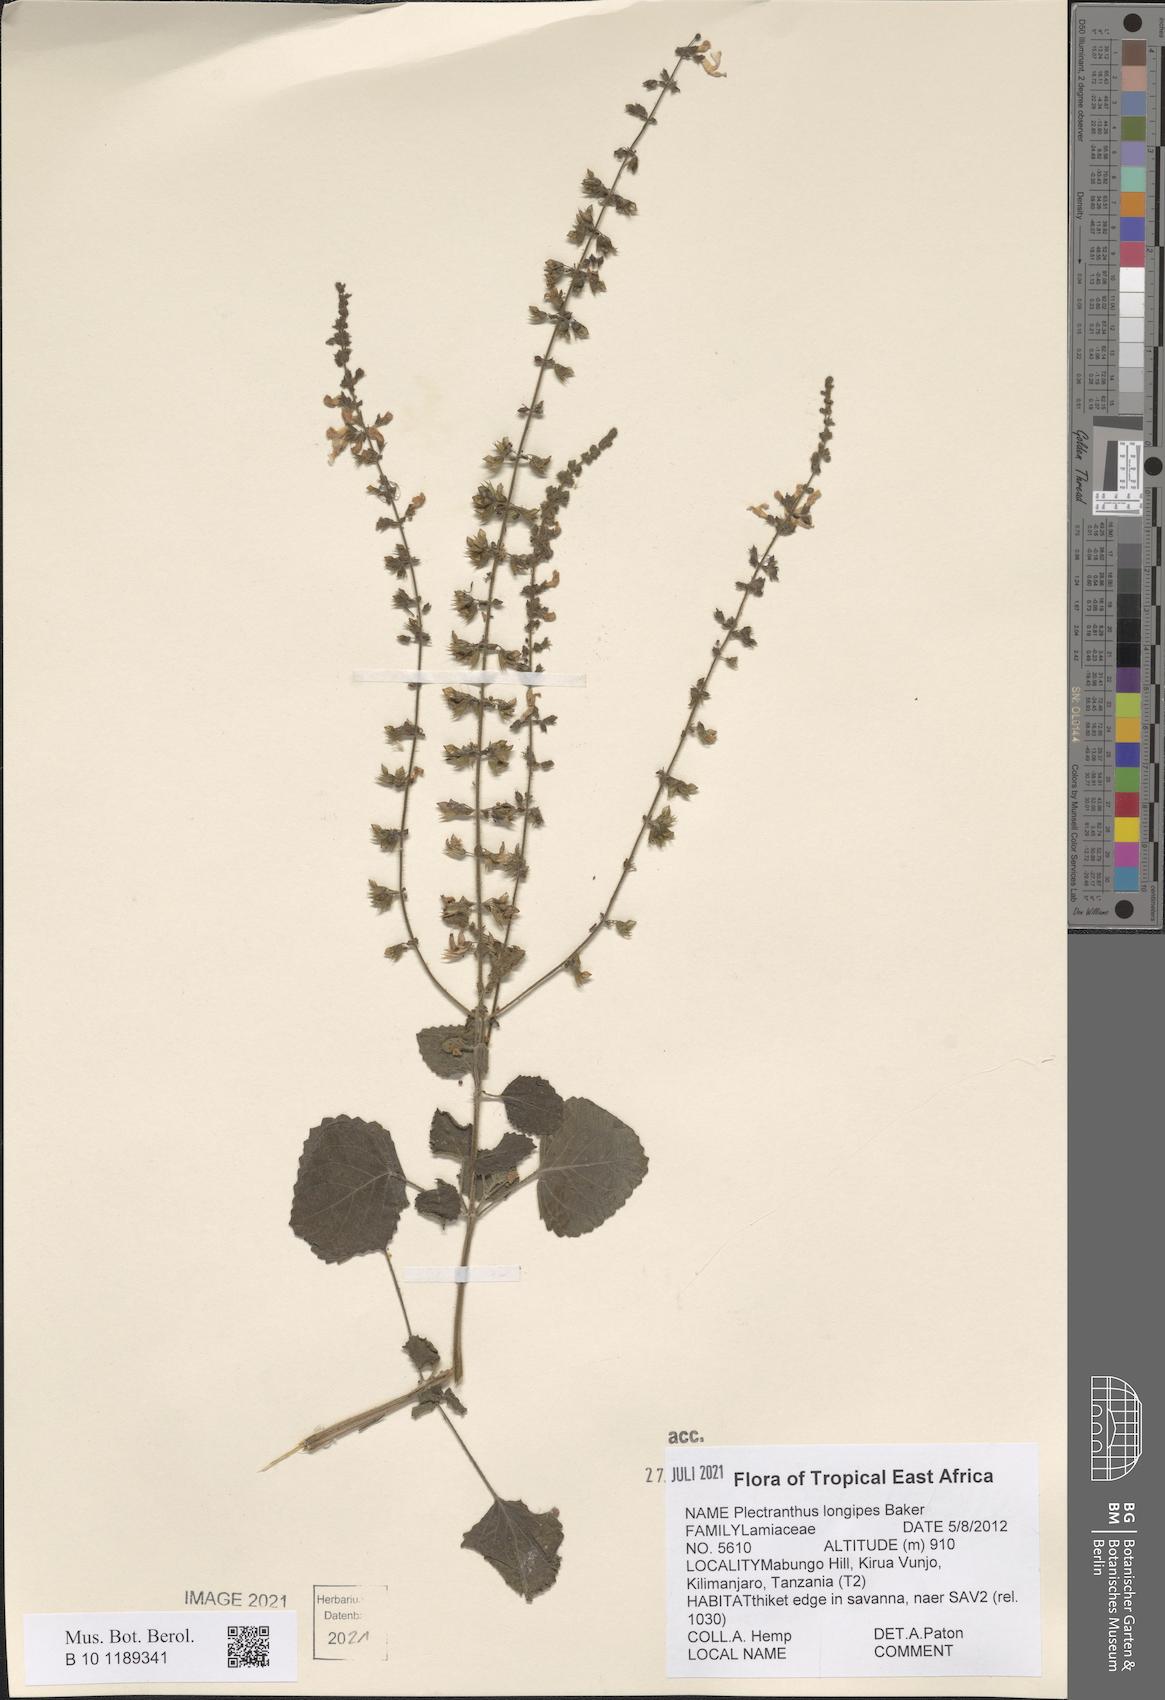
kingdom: Plantae
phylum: Tracheophyta
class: Magnoliopsida
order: Lamiales
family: Lamiaceae
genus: Equilabium
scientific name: Equilabium longipes
